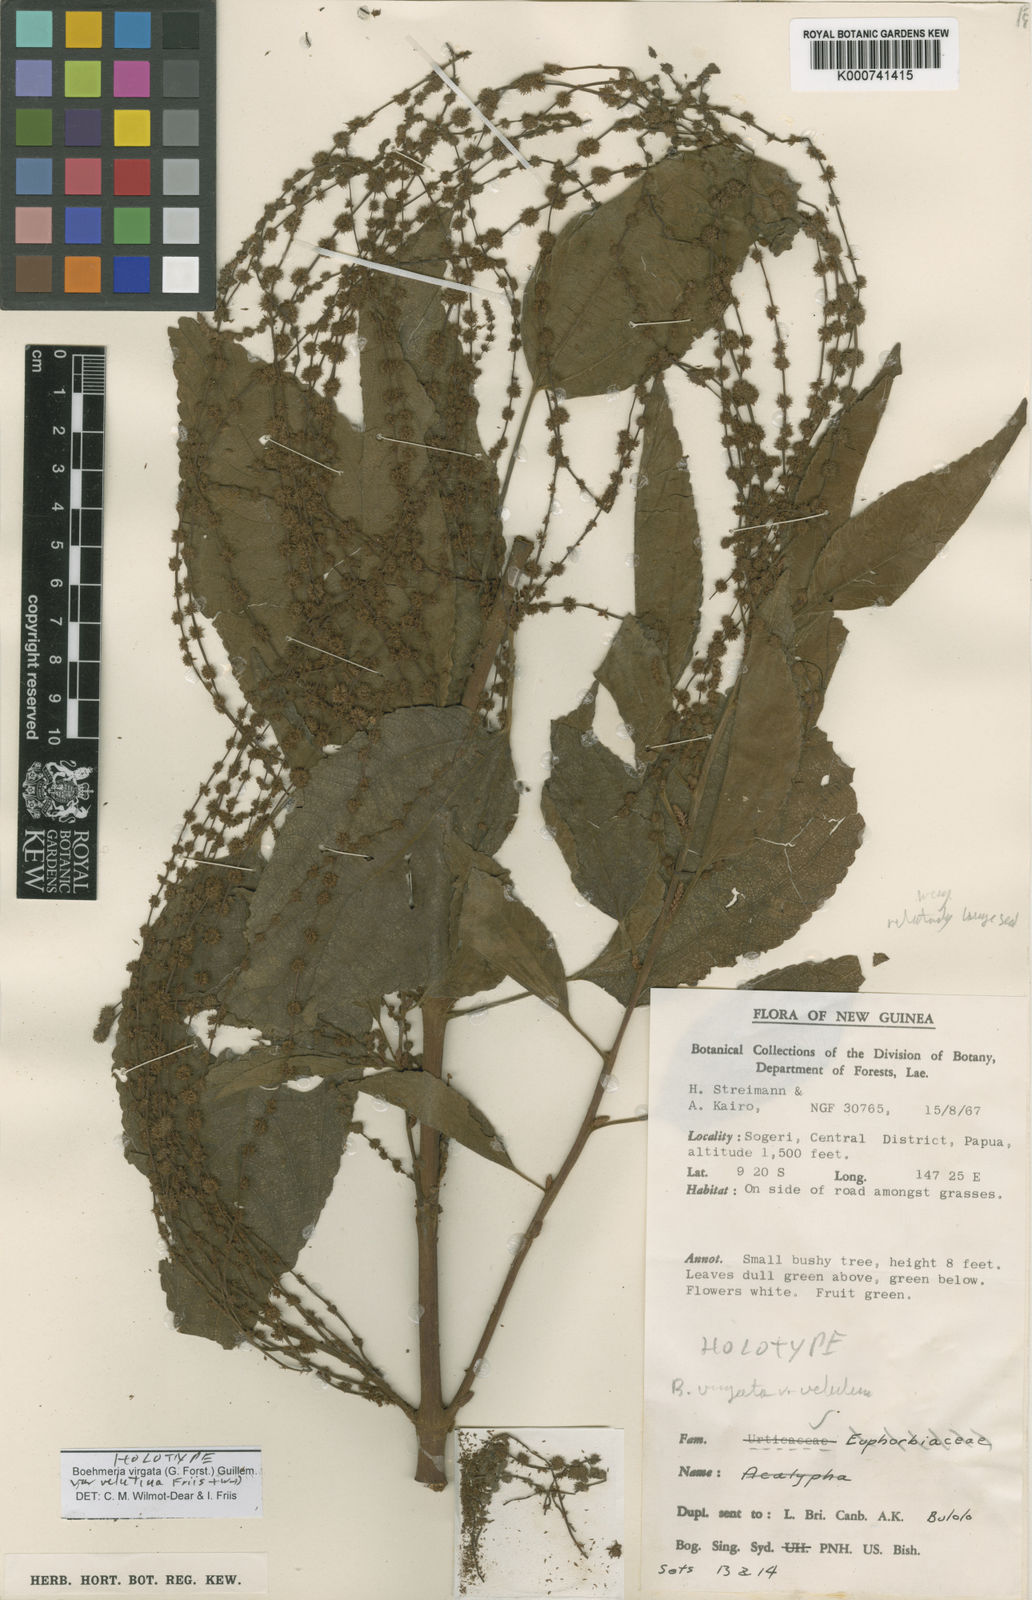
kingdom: Plantae
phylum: Tracheophyta
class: Magnoliopsida
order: Rosales
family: Urticaceae
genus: Boehmeria
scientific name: Boehmeria virgata
